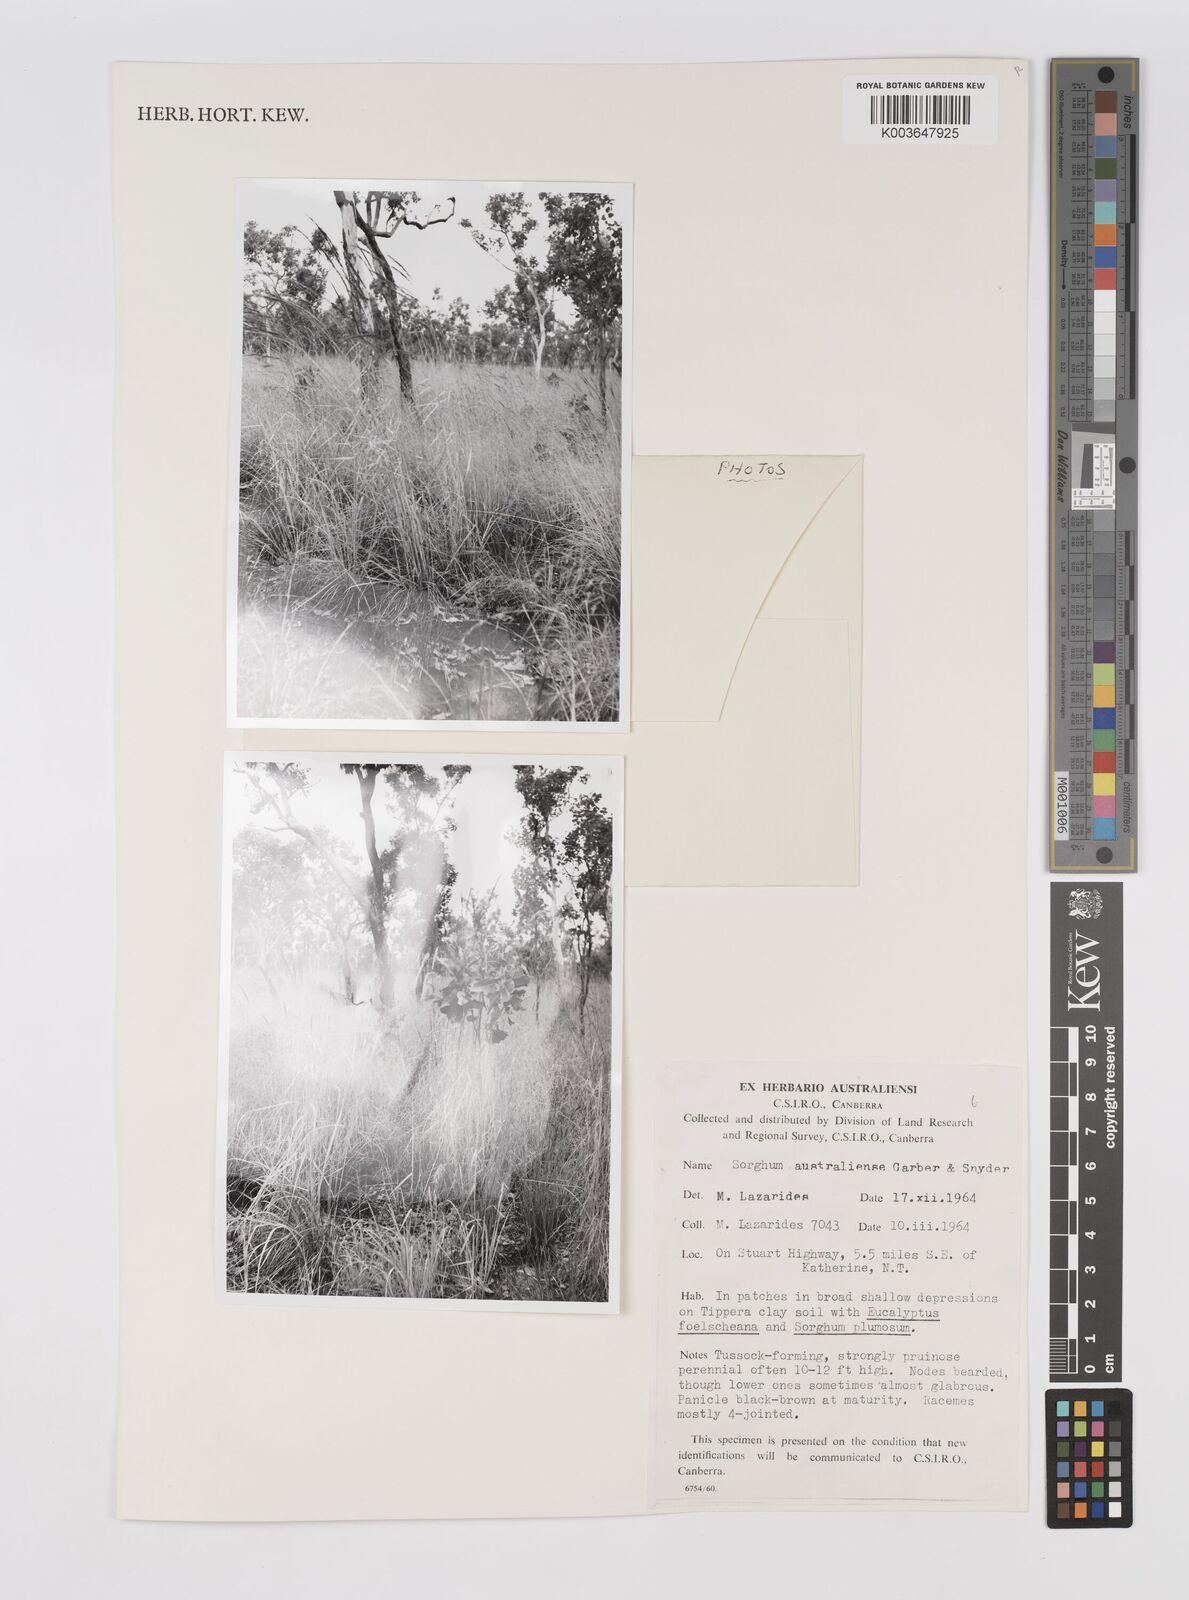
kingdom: Plantae
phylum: Tracheophyta
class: Liliopsida
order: Poales
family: Poaceae
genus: Sarga
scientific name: Sarga timorensis
